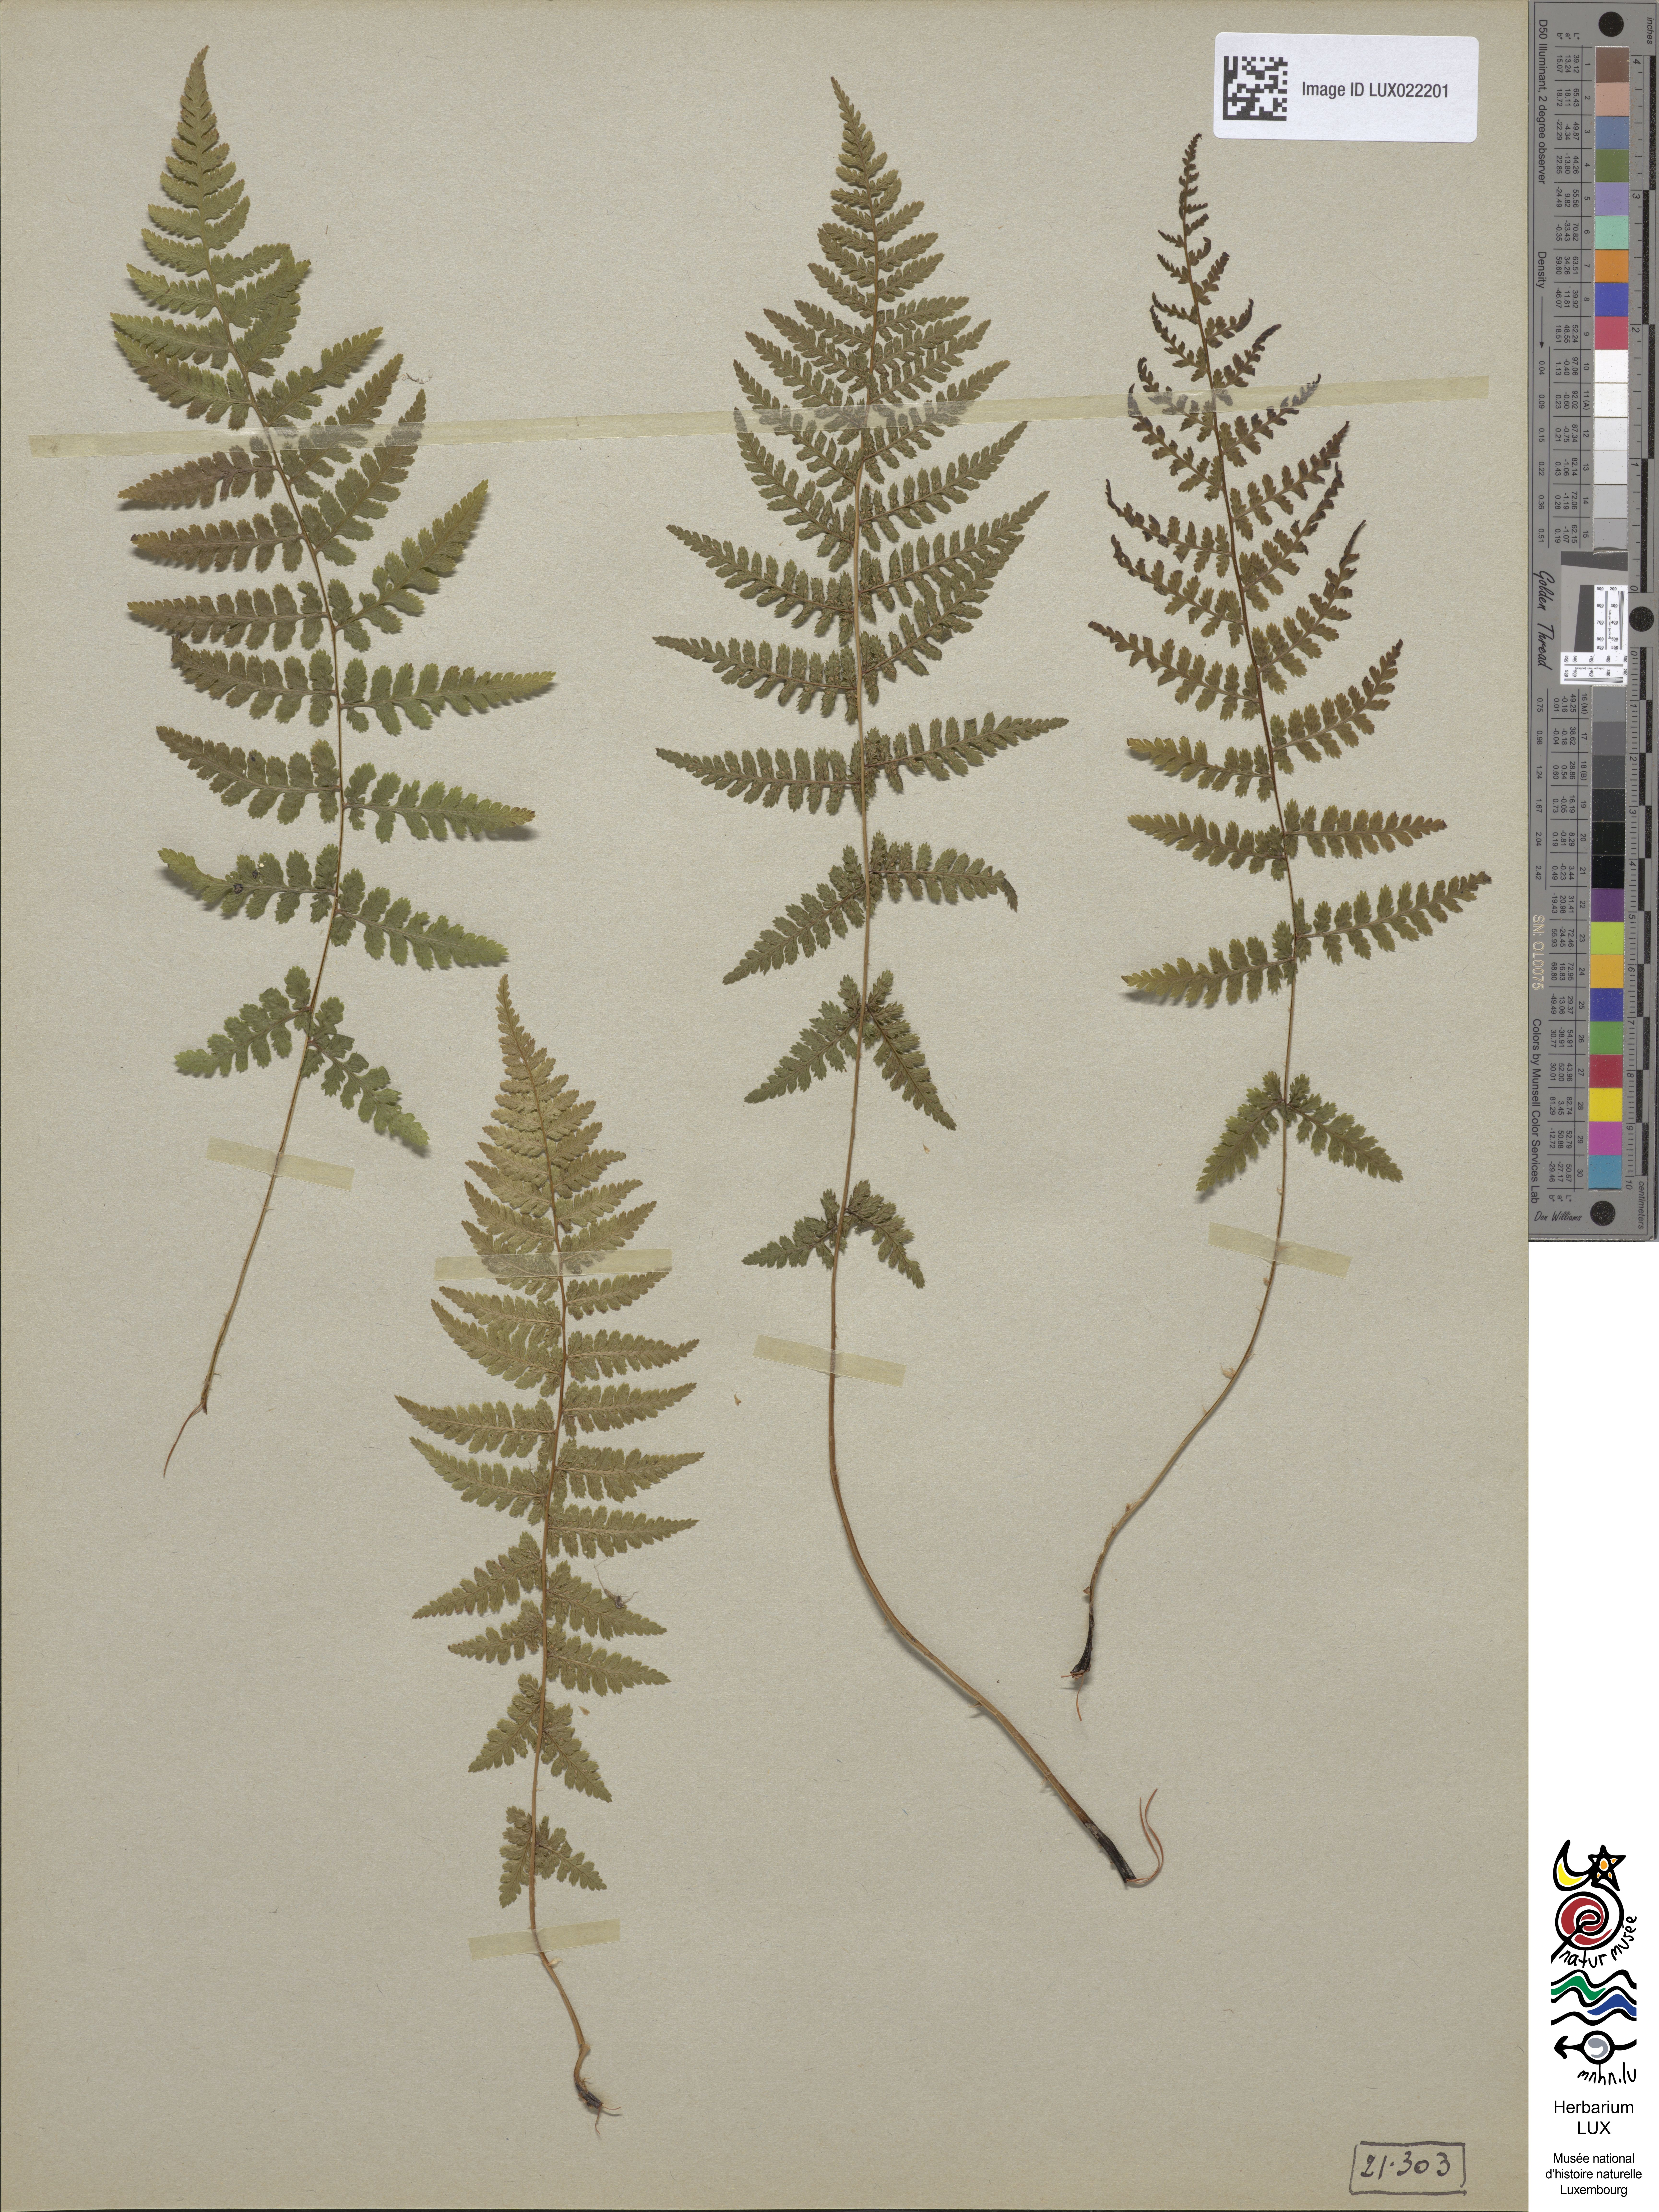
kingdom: Plantae
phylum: Tracheophyta
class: Polypodiopsida
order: Polypodiales
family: Athyriaceae
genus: Athyrium
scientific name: Athyrium filix-femina
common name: Lady fern
